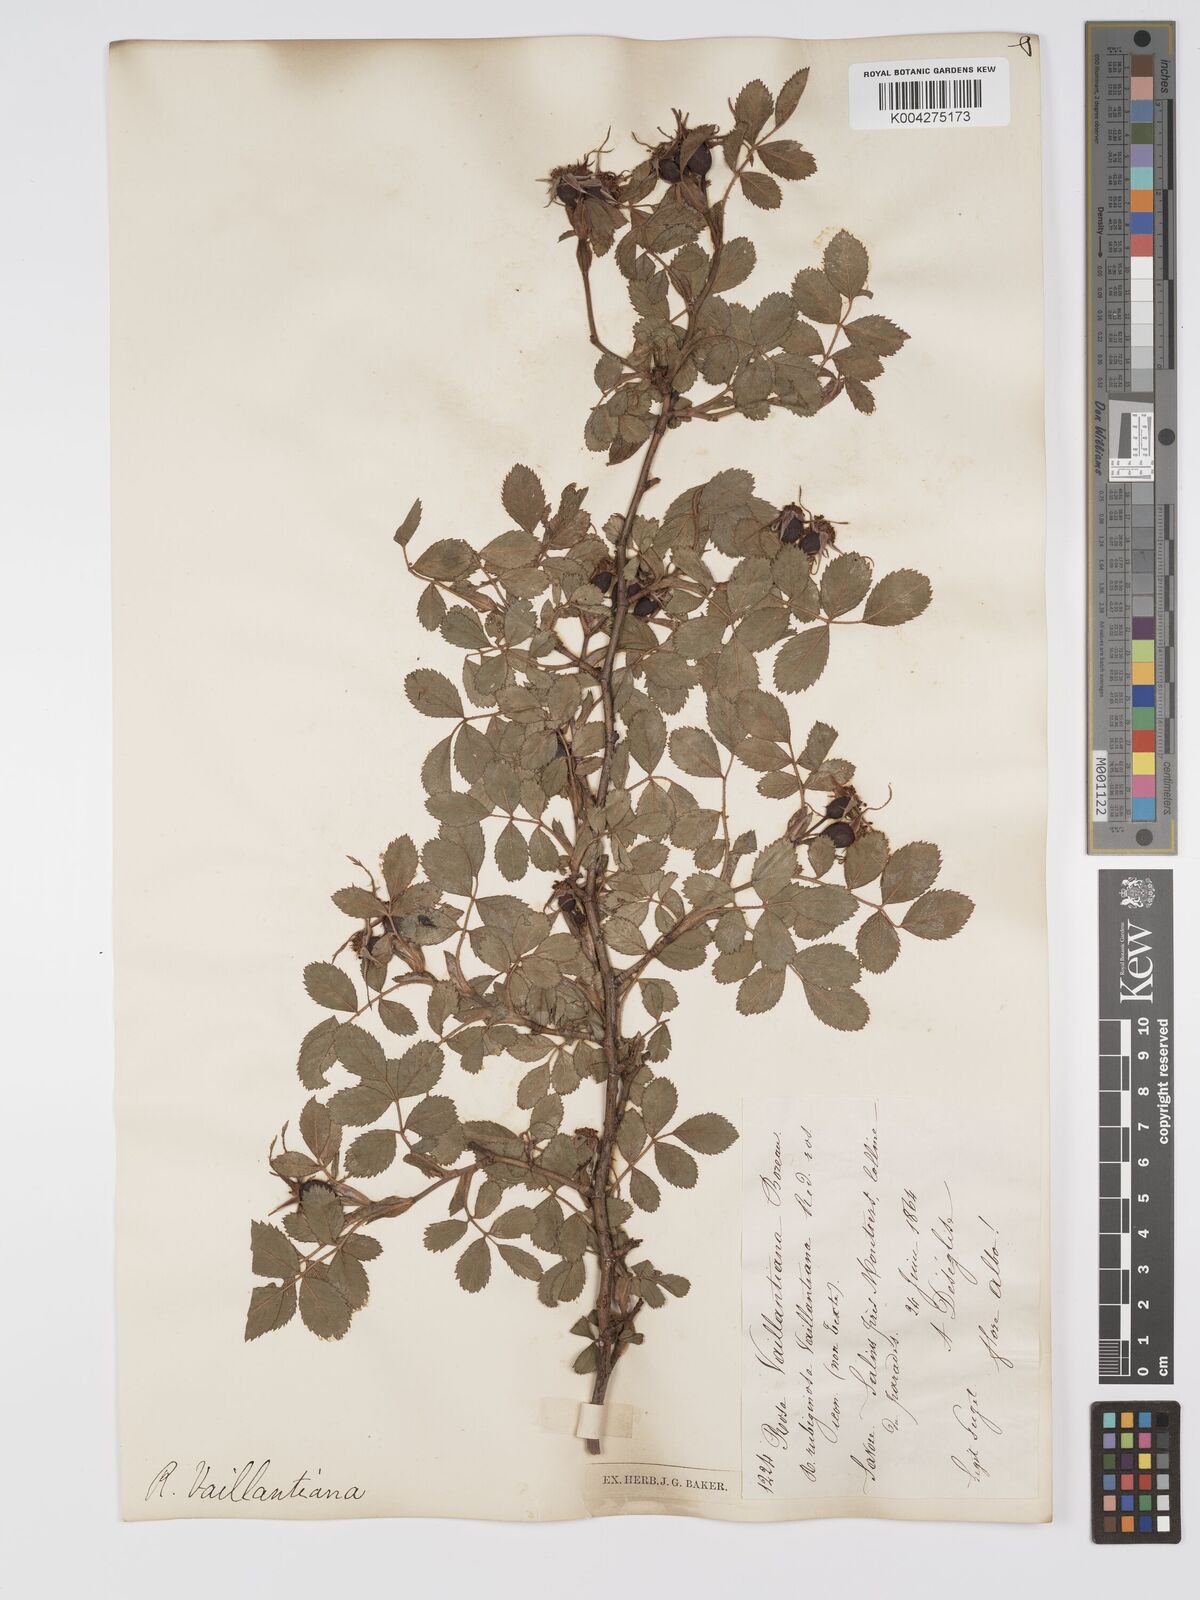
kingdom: Plantae
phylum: Tracheophyta
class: Magnoliopsida
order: Rosales
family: Rosaceae
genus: Rosa
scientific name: Rosa
